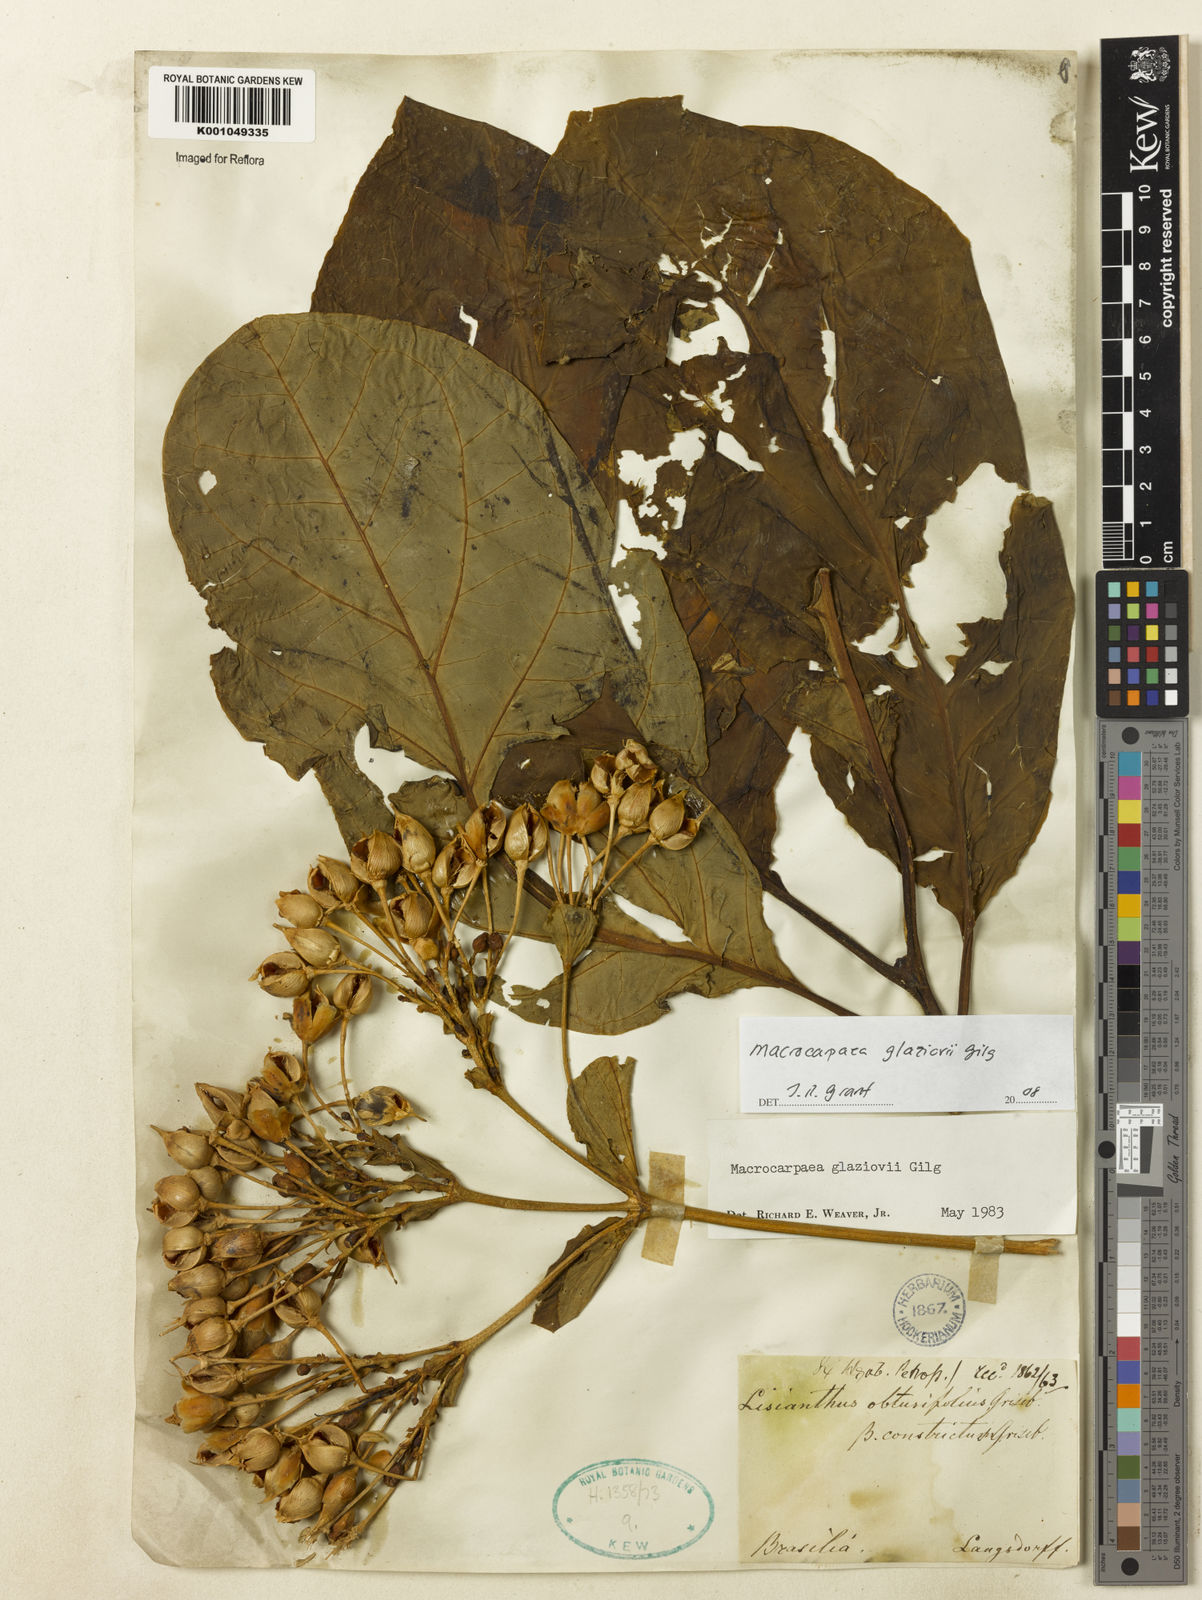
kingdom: Plantae
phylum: Tracheophyta
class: Magnoliopsida
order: Gentianales
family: Gentianaceae
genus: Macrocarpaea
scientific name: Macrocarpaea glaziovii
